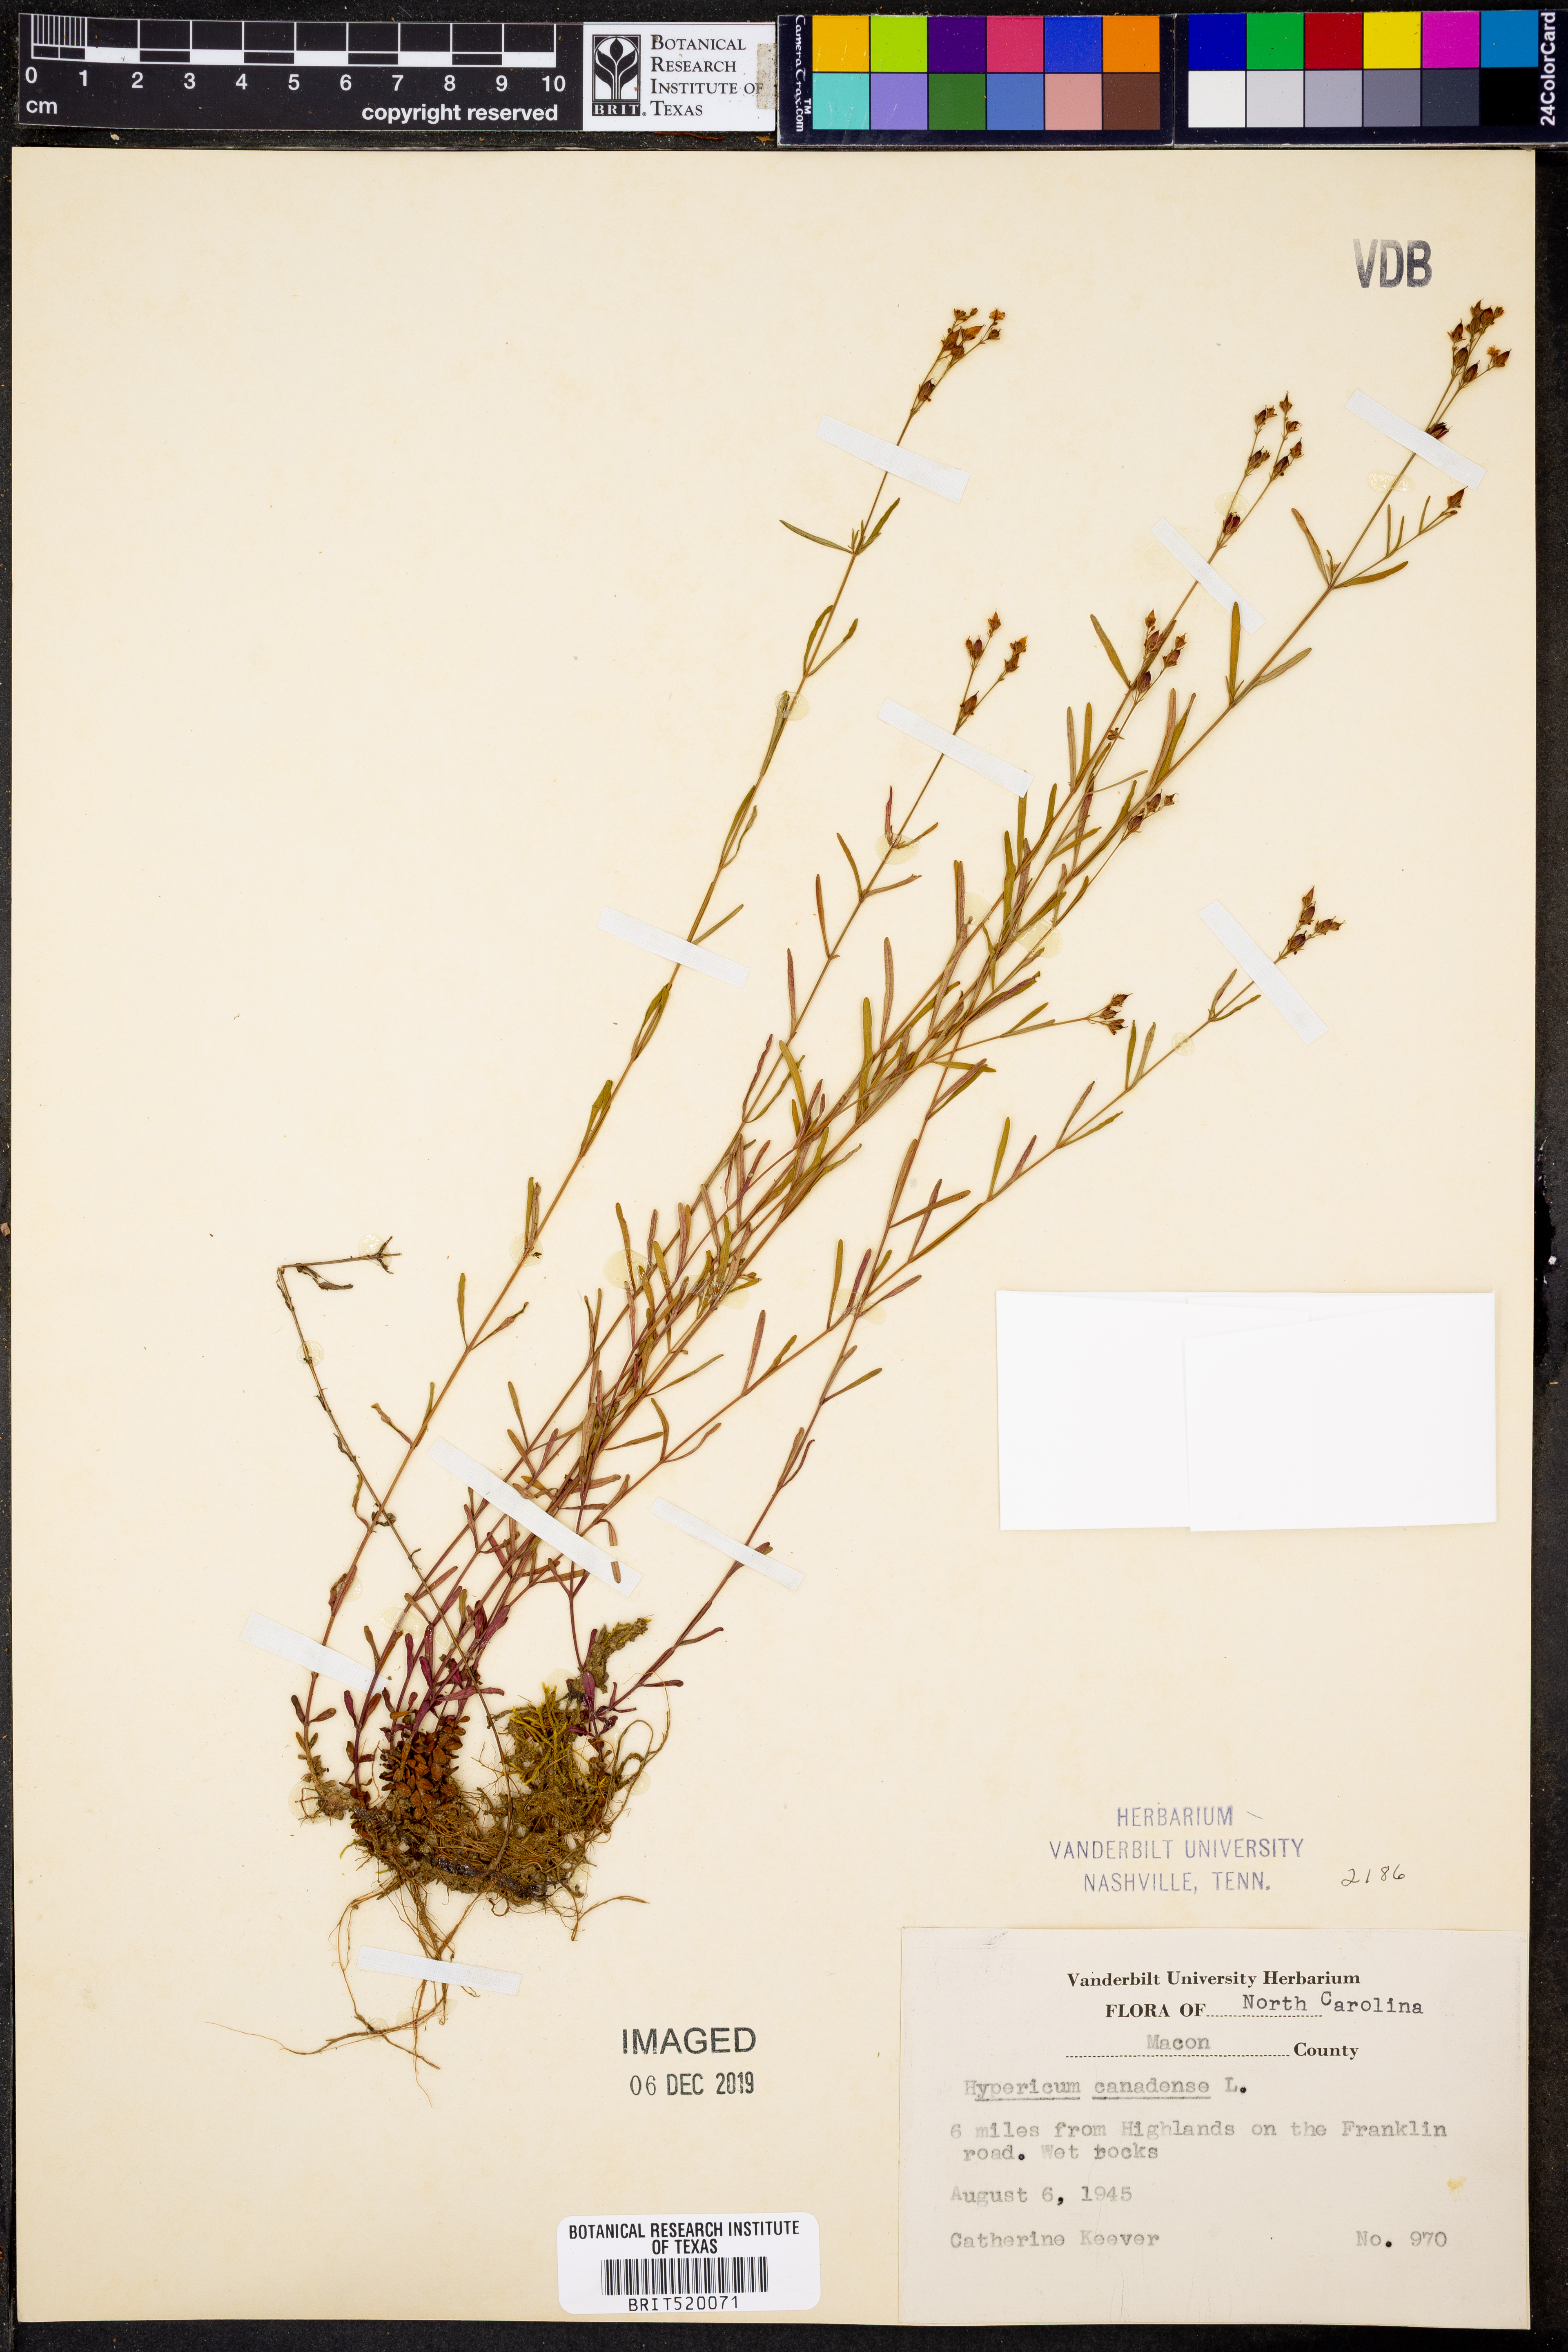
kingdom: Plantae
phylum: Tracheophyta
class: Magnoliopsida
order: Malpighiales
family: Hypericaceae
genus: Hypericum
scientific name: Hypericum canadense
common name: Irish st. john's-wort
